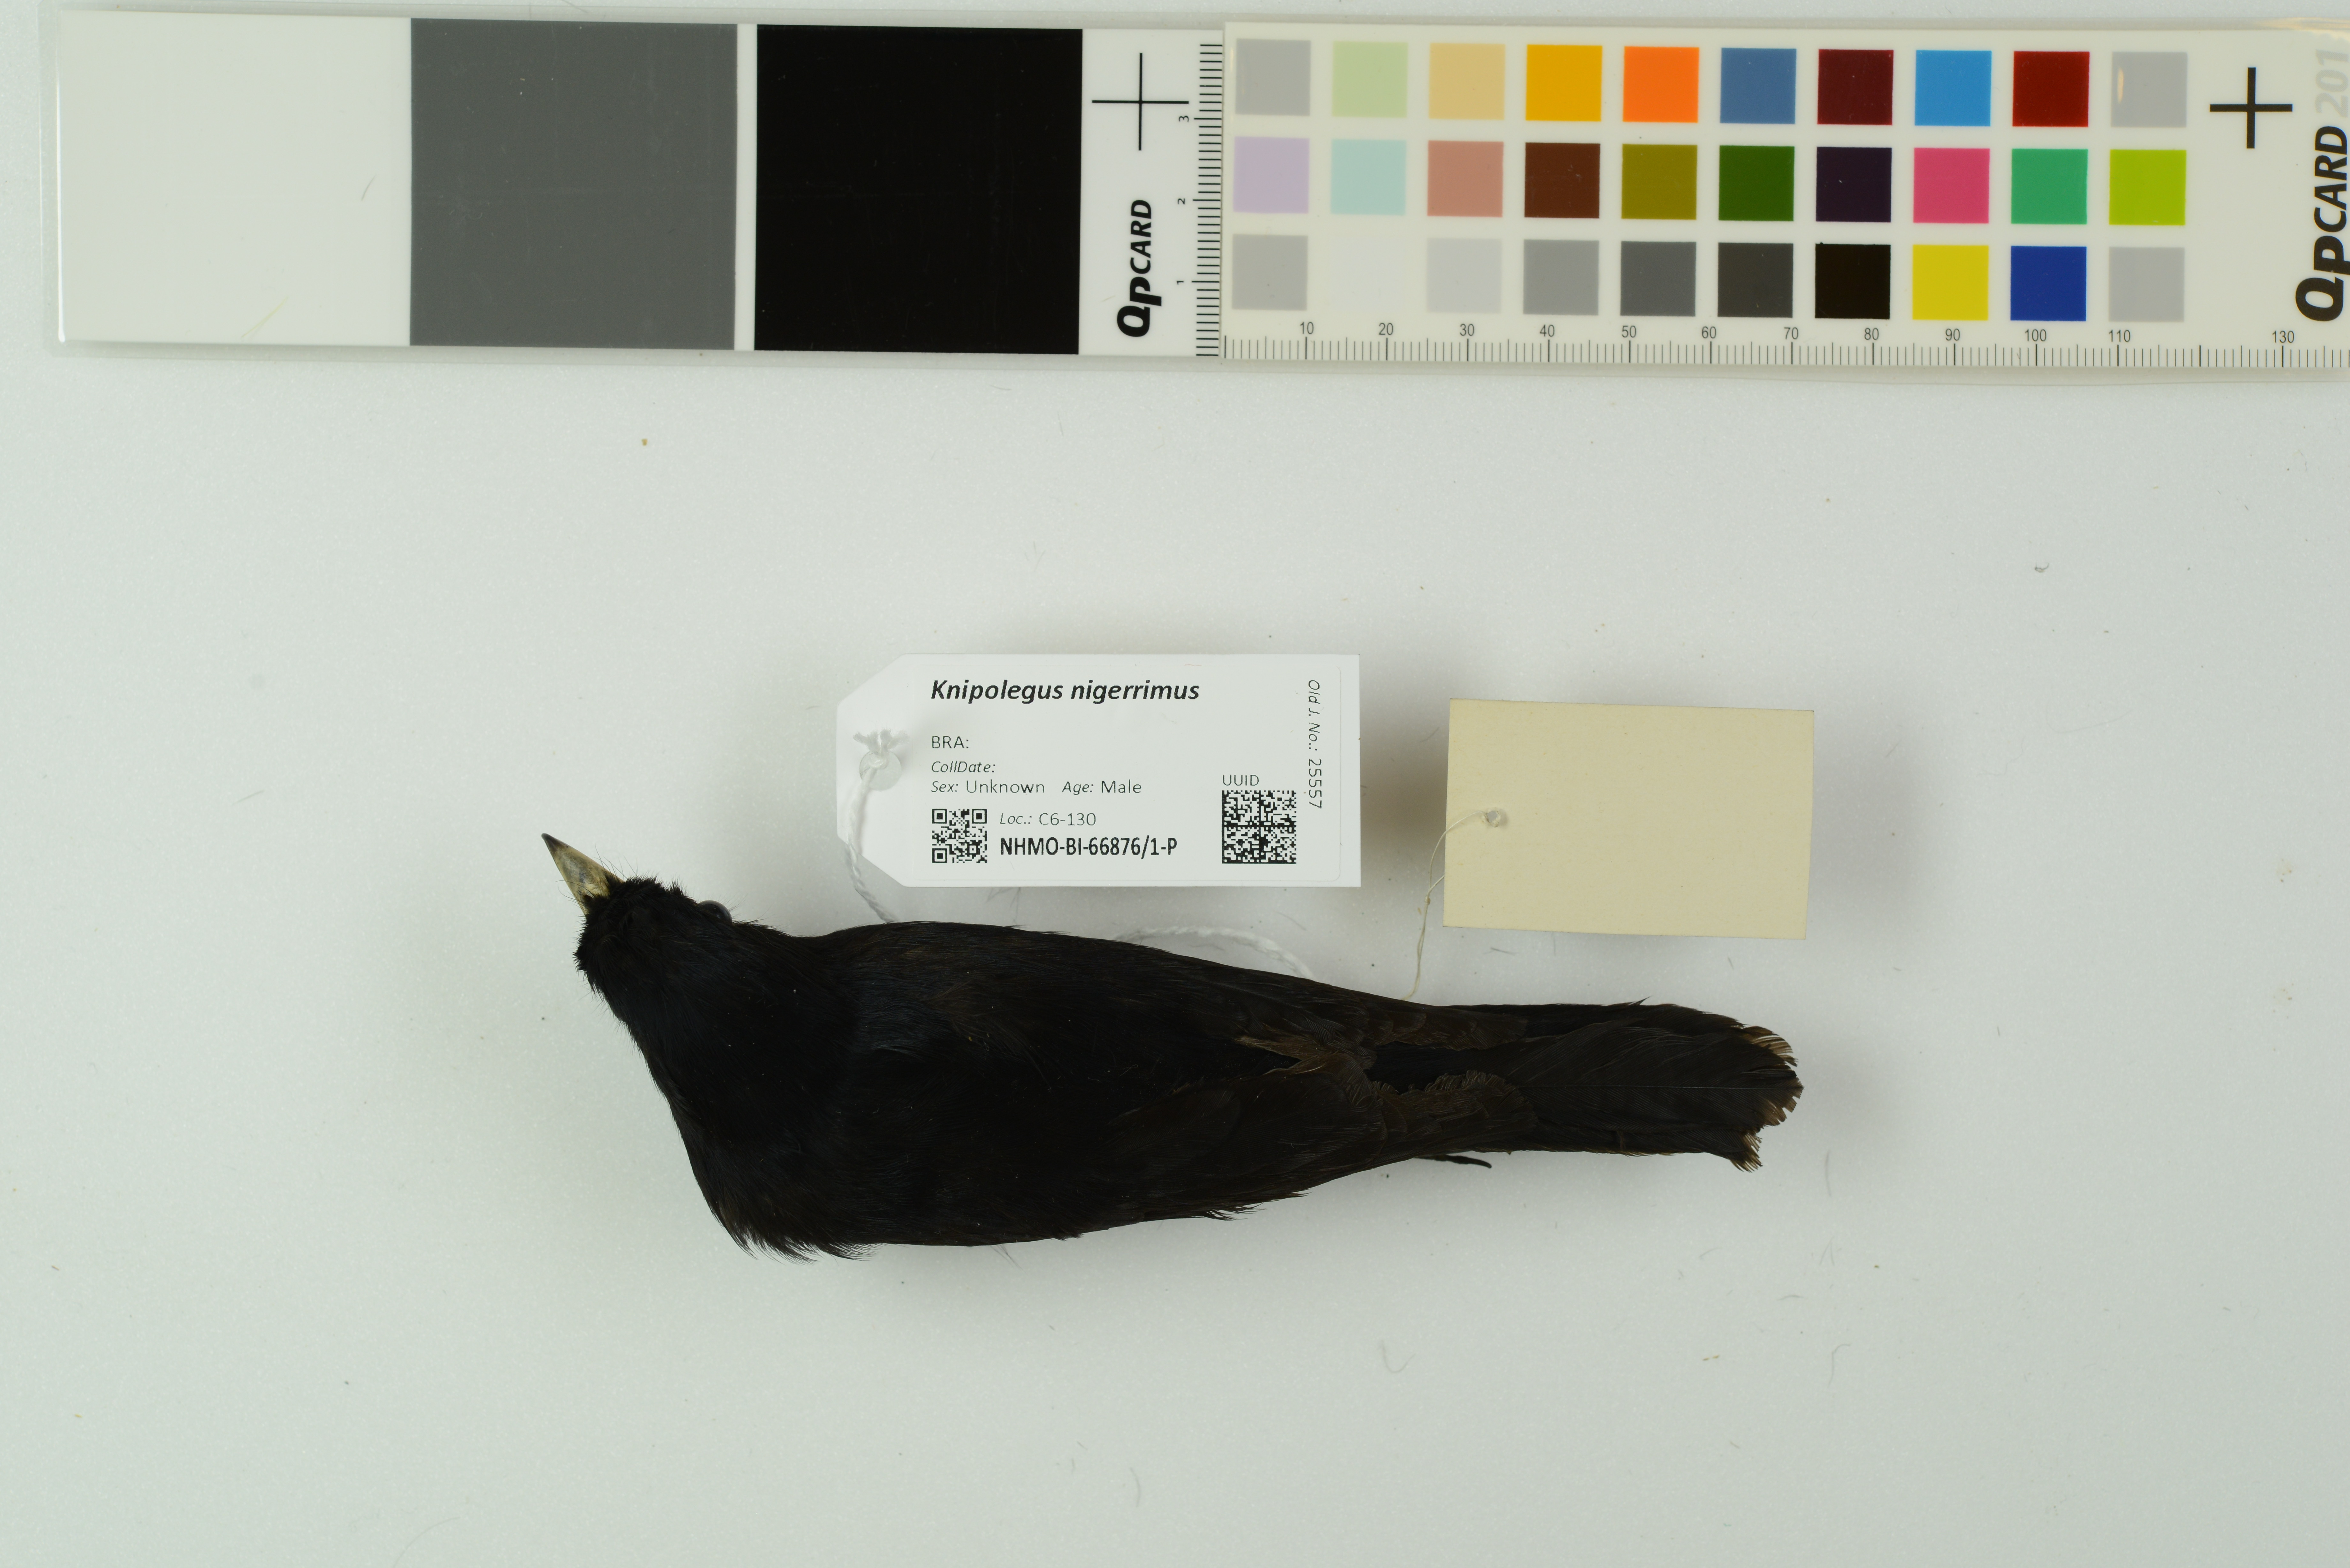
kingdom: Animalia
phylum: Chordata
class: Aves
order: Passeriformes
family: Tyrannidae
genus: Knipolegus
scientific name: Knipolegus nigerrimus
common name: Velvety black tyrant
